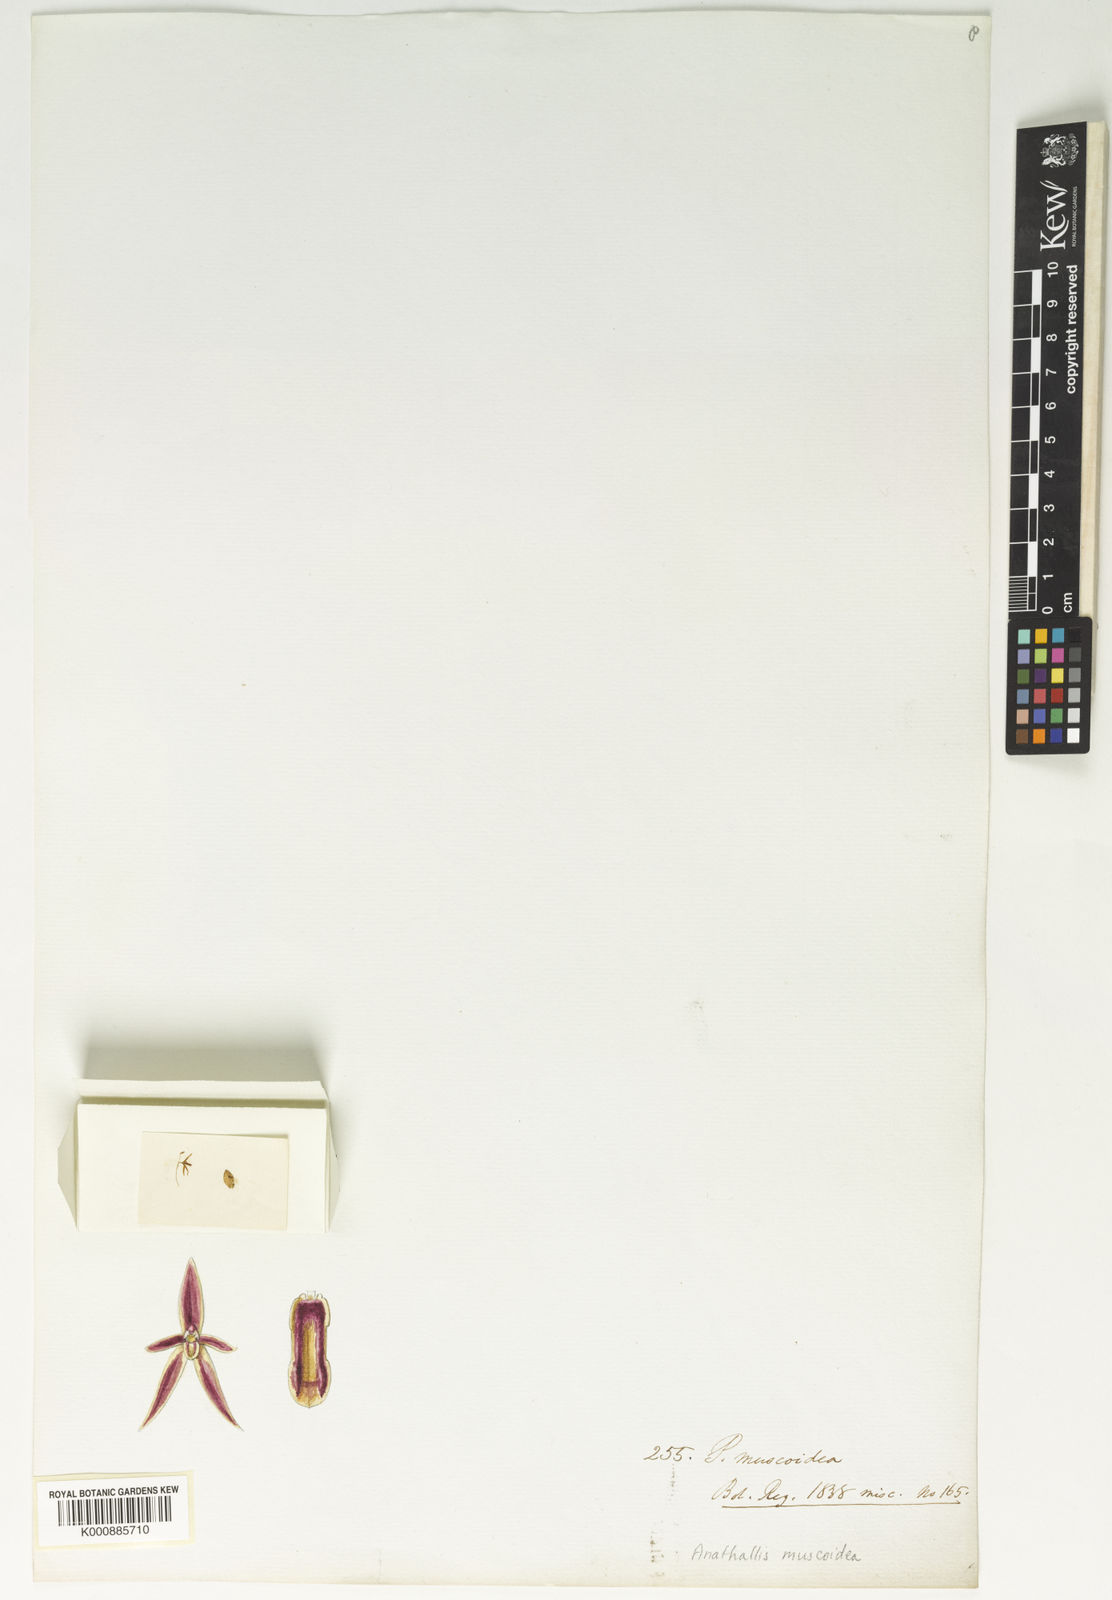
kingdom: Plantae
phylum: Tracheophyta
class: Liliopsida
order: Asparagales
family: Orchidaceae
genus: Anathallis
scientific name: Anathallis muscoidea
